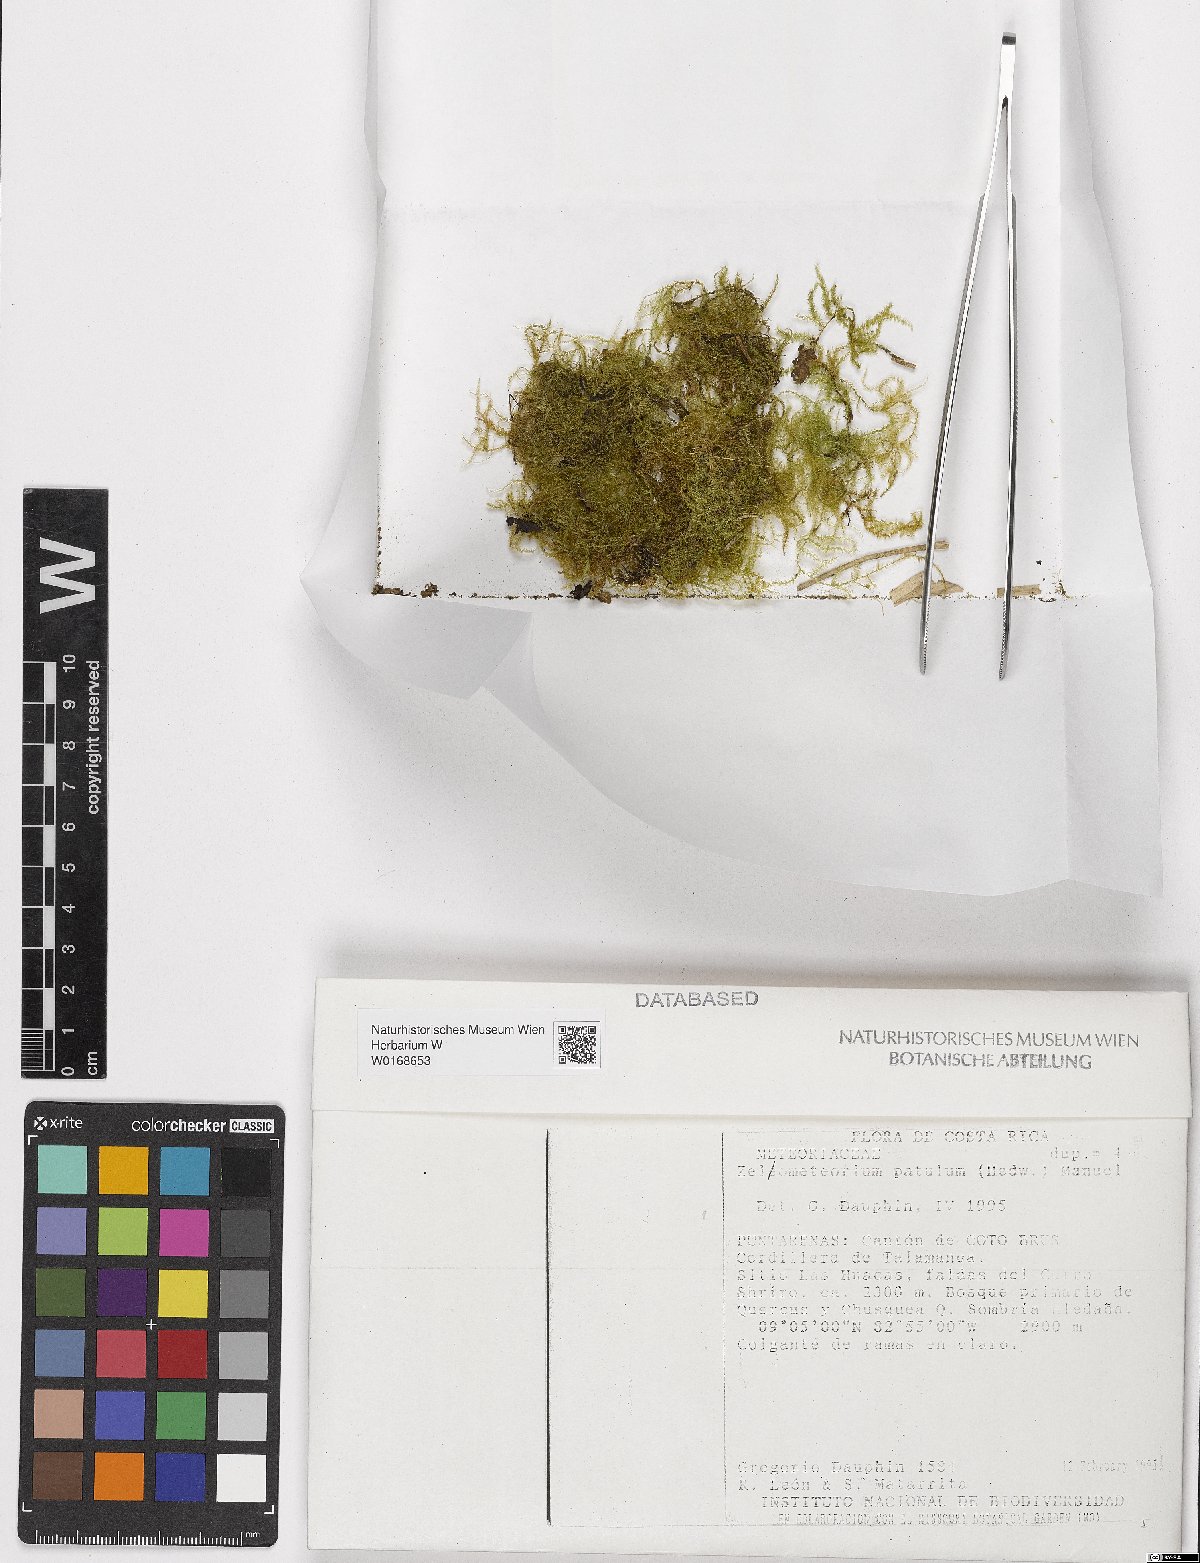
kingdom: Plantae
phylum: Bryophyta
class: Bryopsida
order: Hypnales
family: Brachytheciaceae
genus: Zelometeorium
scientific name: Zelometeorium patulum
